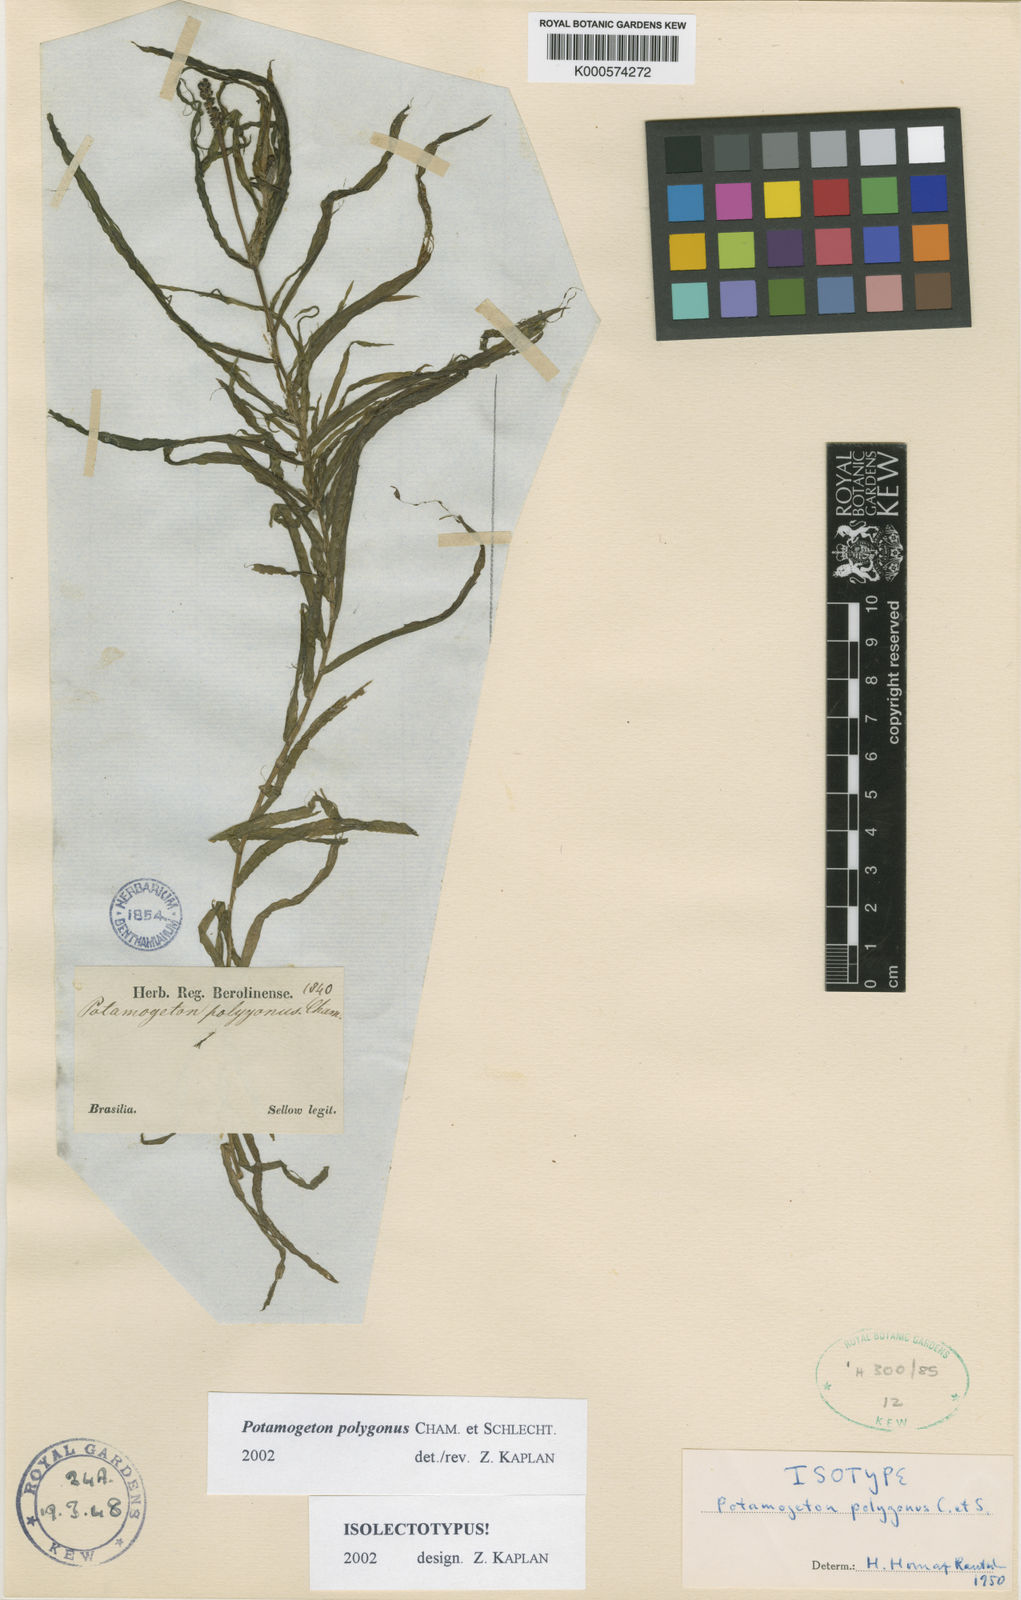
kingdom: Plantae
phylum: Tracheophyta
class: Liliopsida
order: Alismatales
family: Potamogetonaceae
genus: Potamogeton
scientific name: Potamogeton polygonus
